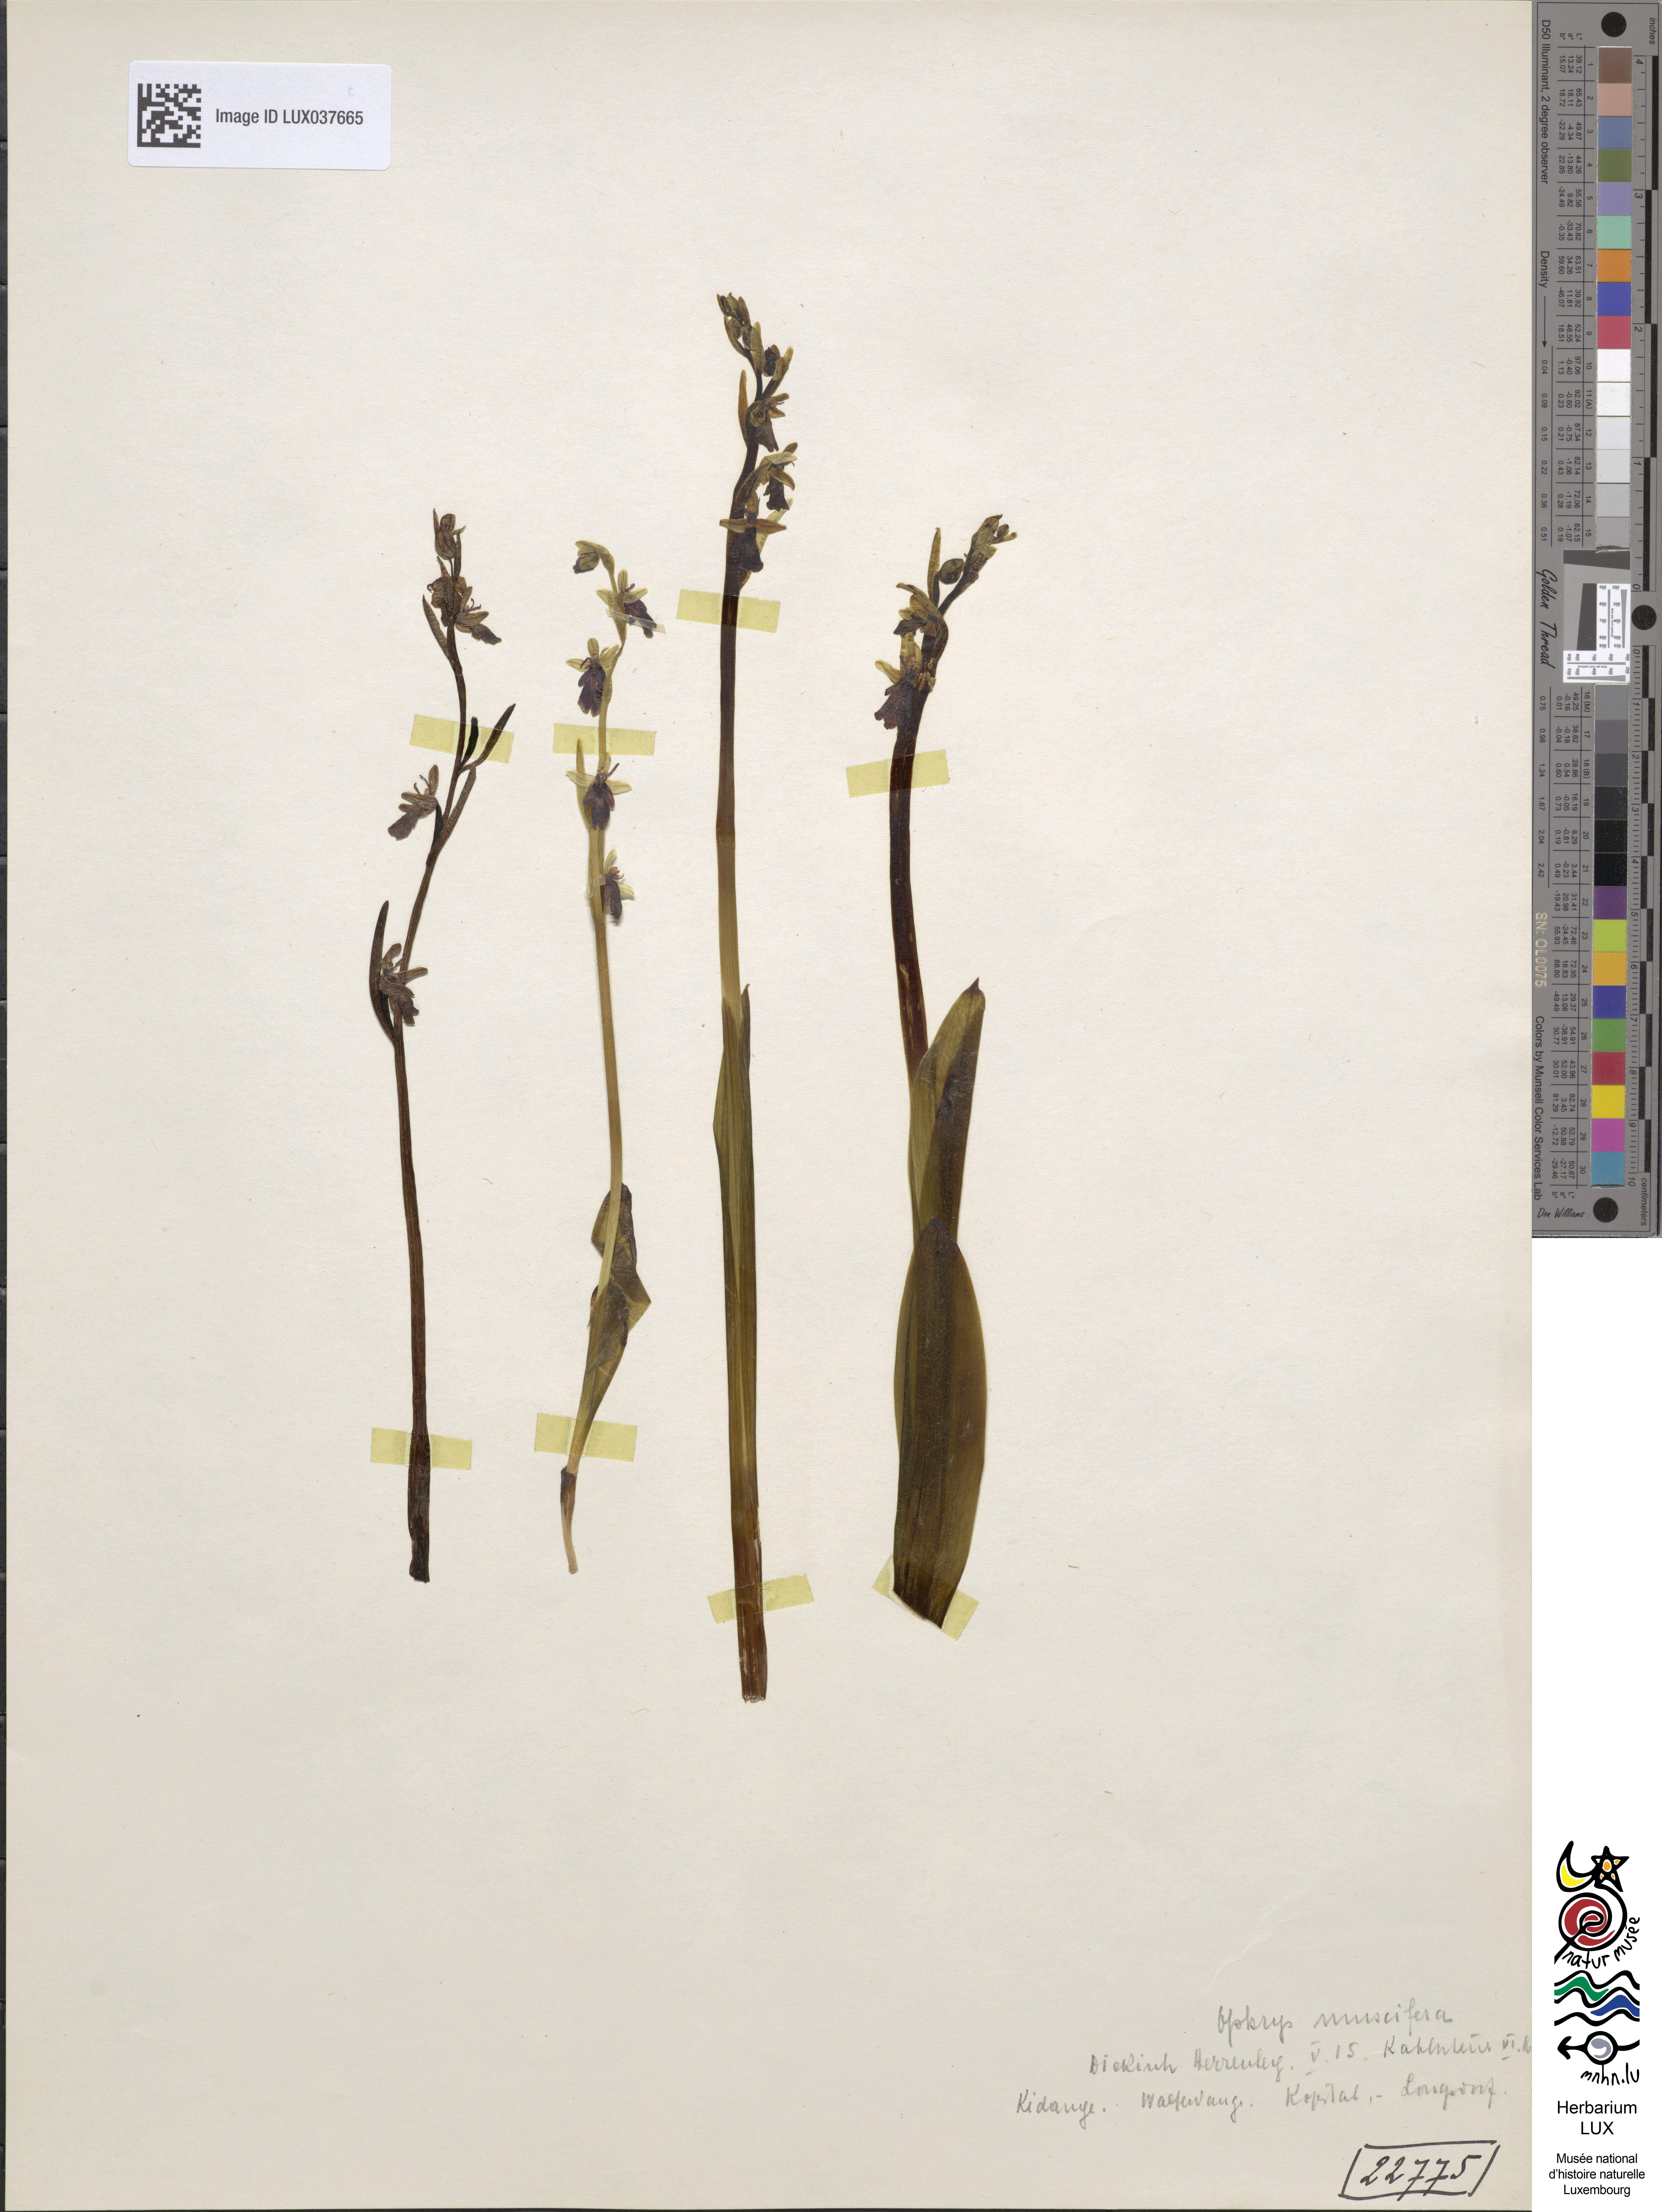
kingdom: Plantae
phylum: Tracheophyta
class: Liliopsida
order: Asparagales
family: Orchidaceae
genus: Ophrys
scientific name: Ophrys insectifera
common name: Fly orchid
